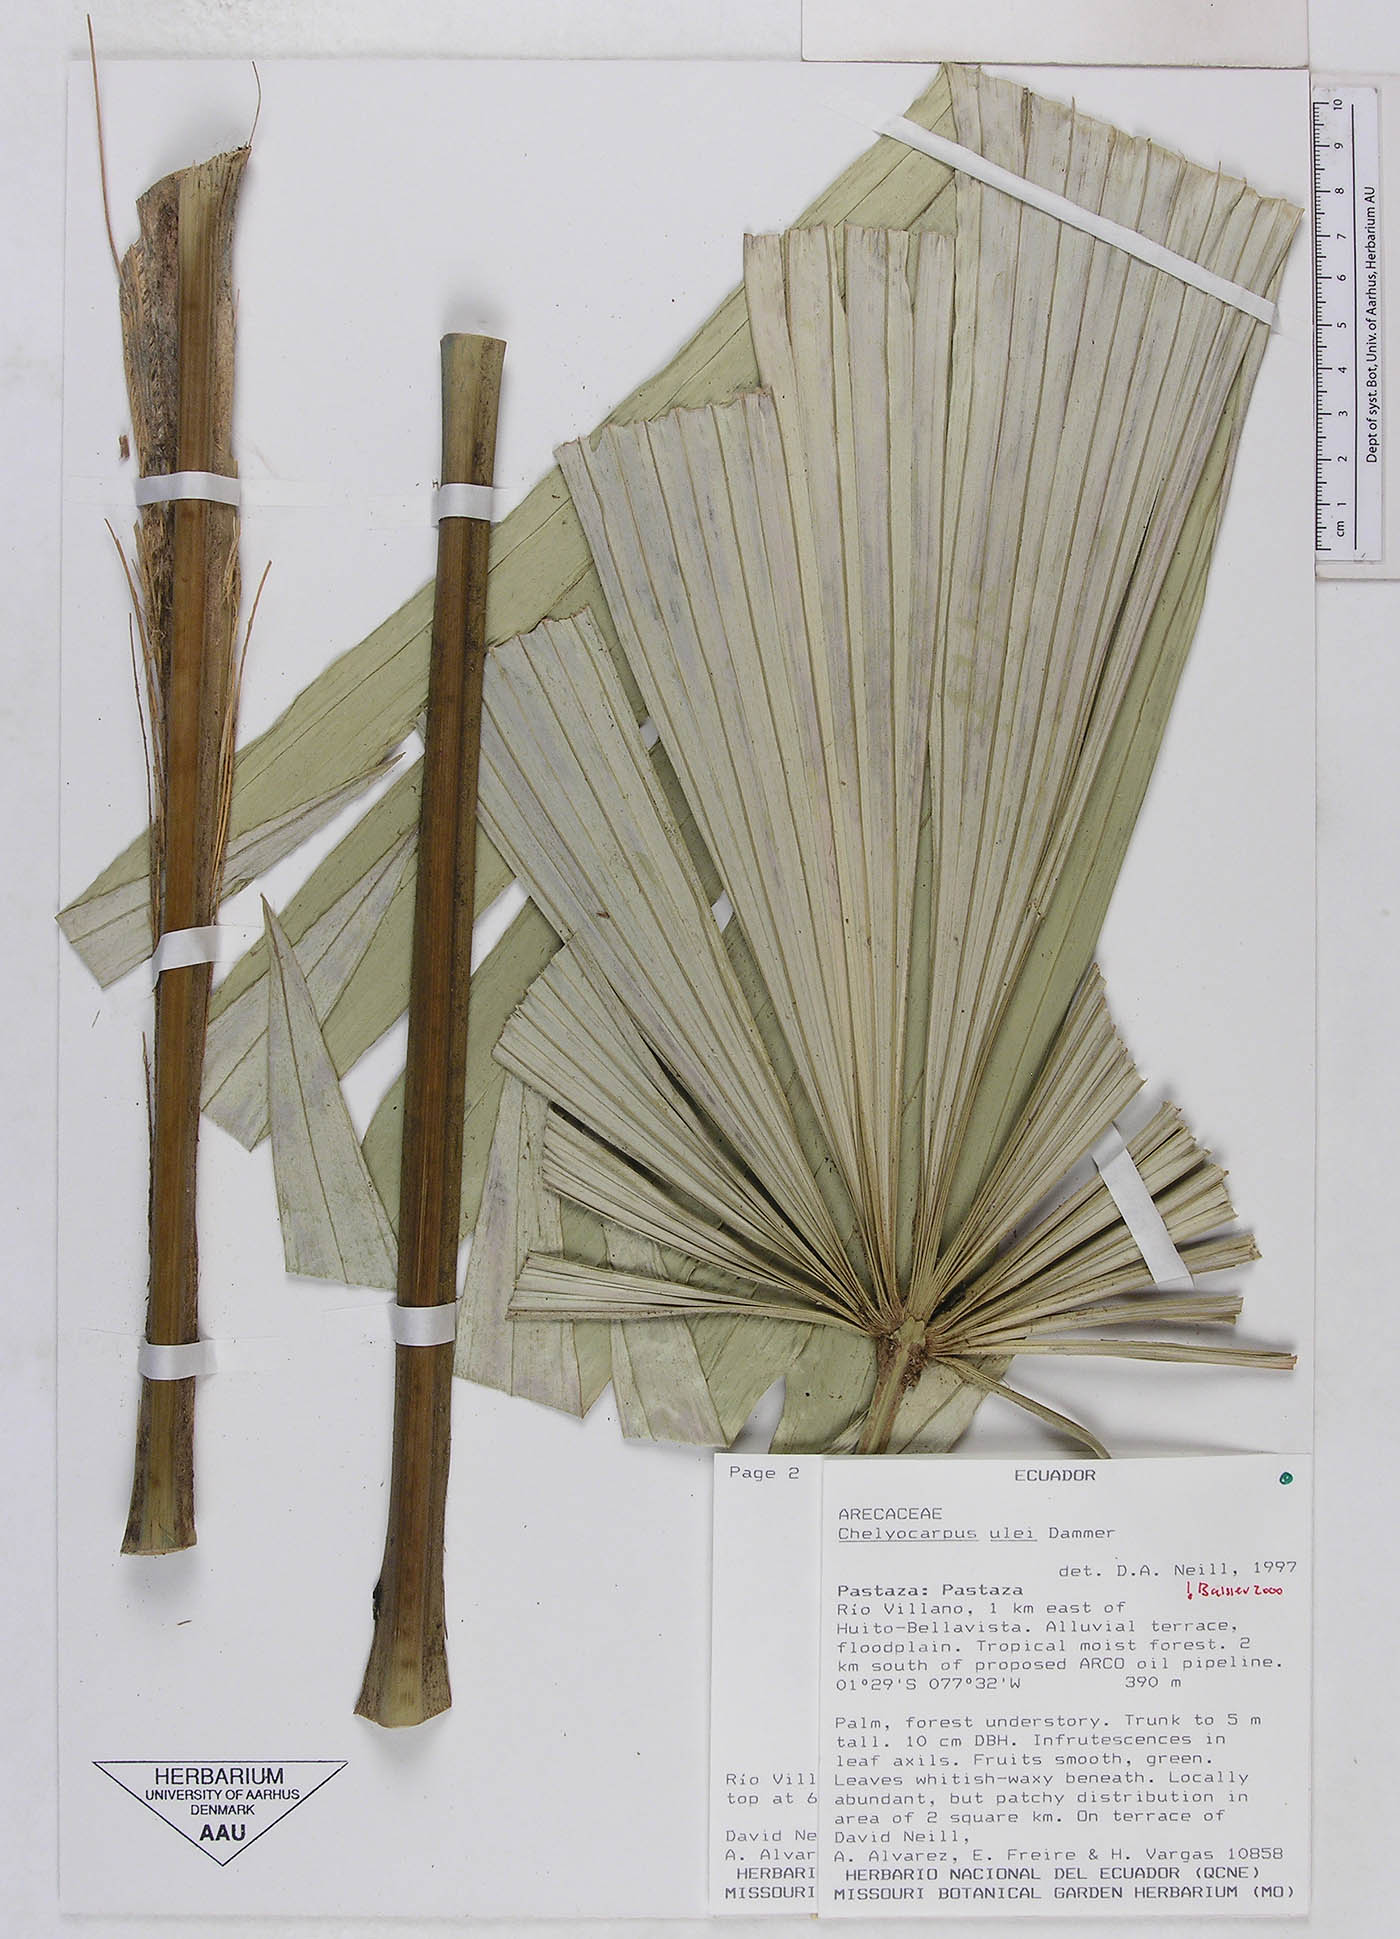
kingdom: Plantae
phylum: Tracheophyta
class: Liliopsida
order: Arecales
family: Arecaceae
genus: Chelyocarpus
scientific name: Chelyocarpus ulei
